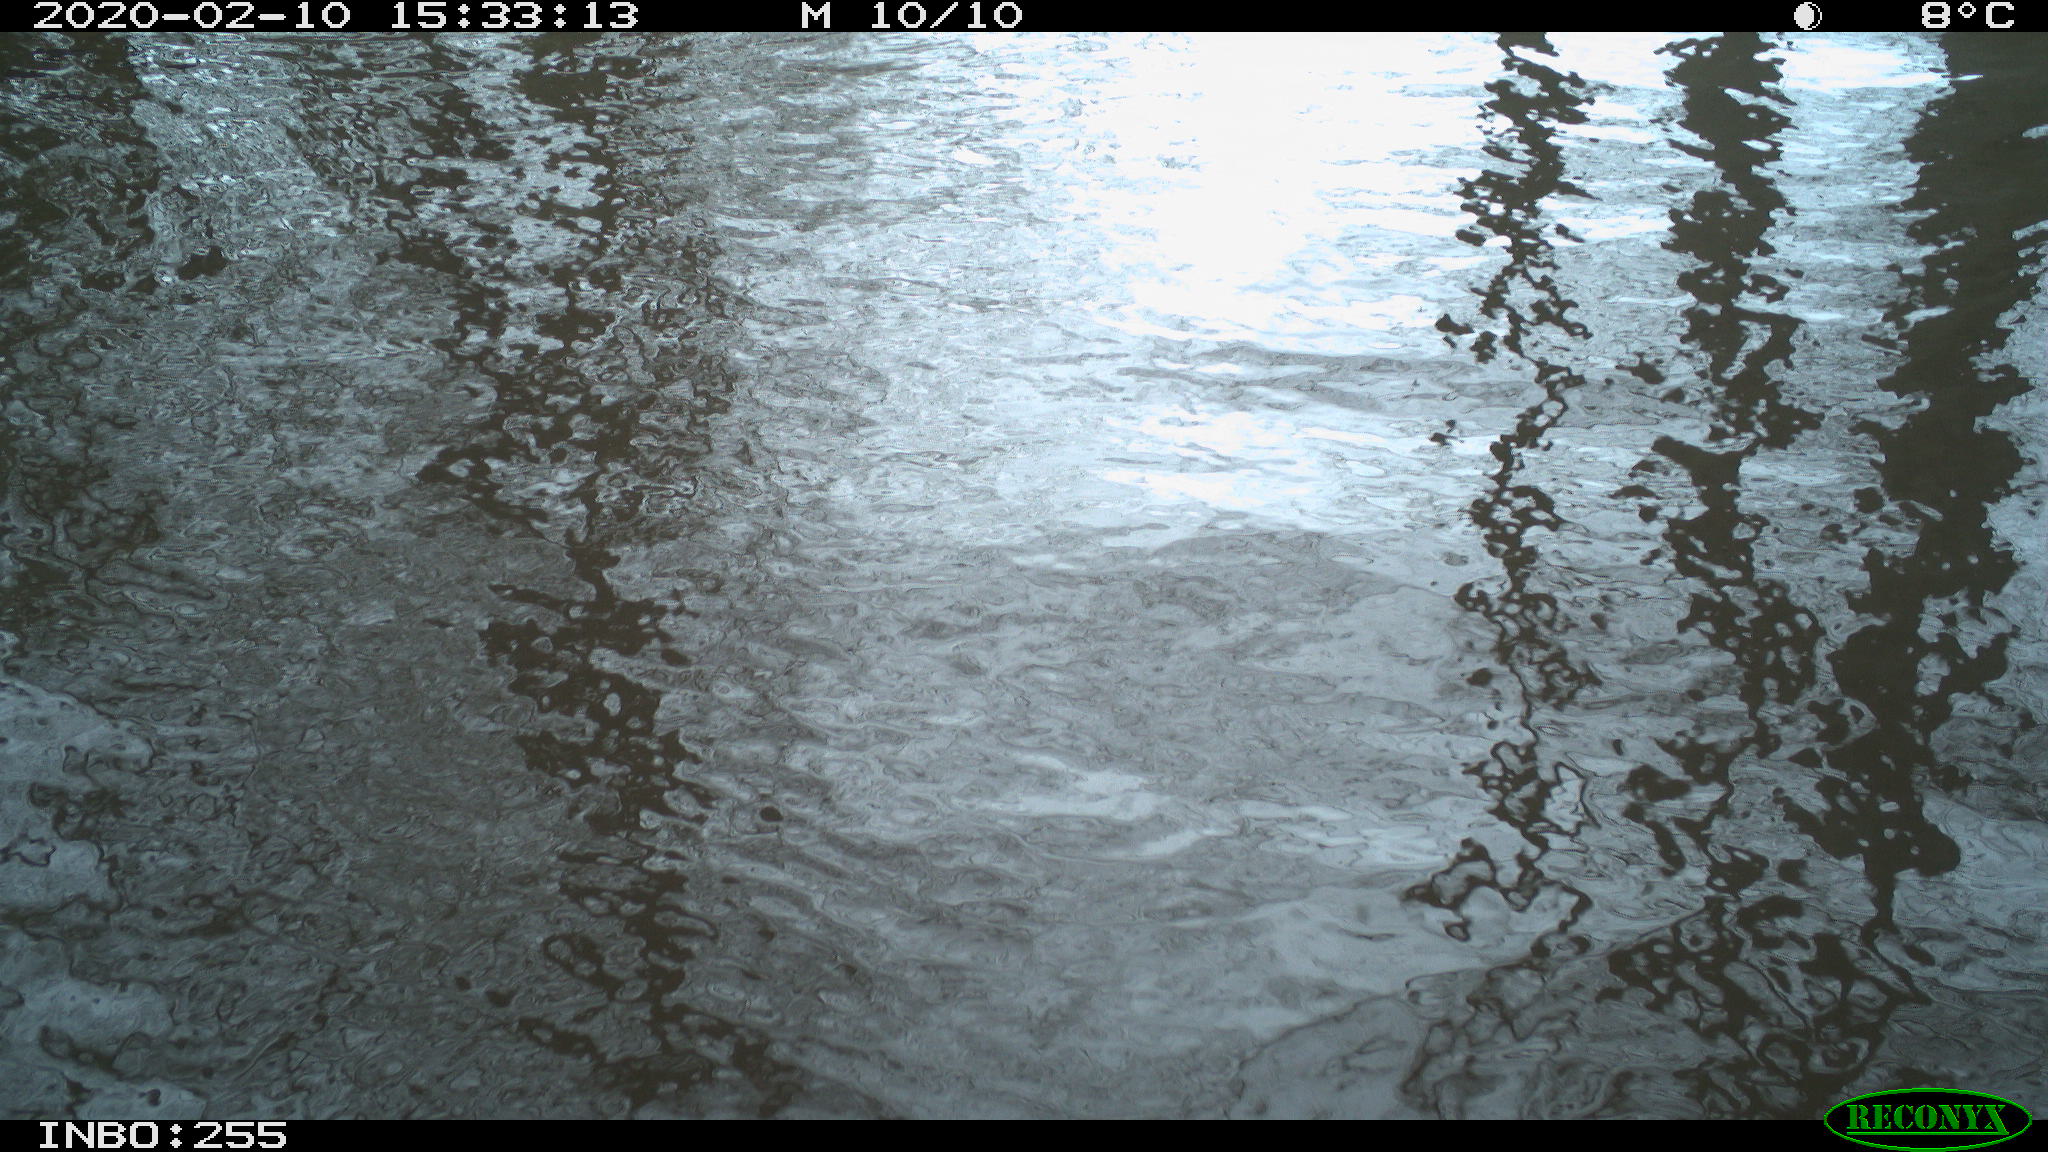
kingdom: Animalia
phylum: Chordata
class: Aves
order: Gruiformes
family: Rallidae
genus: Fulica
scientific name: Fulica atra
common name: Eurasian coot
